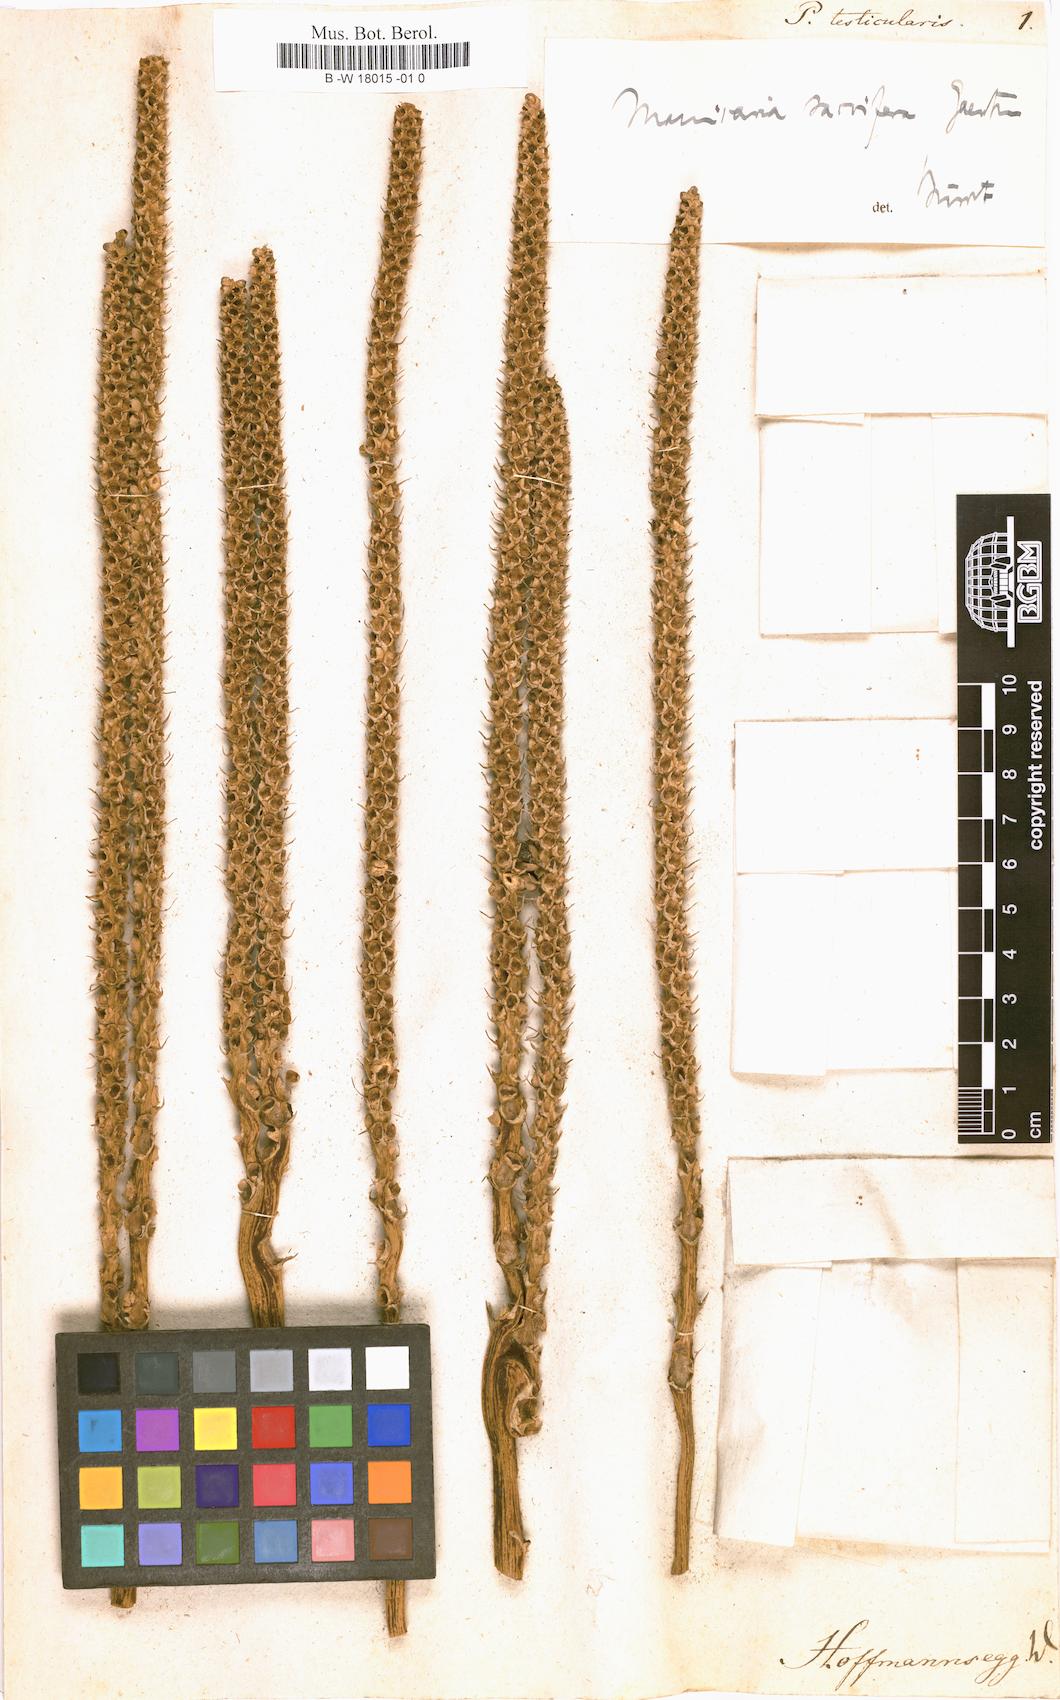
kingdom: Plantae
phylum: Tracheophyta
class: Liliopsida
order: Arecales
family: Arecaceae
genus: Manicaria
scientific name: Manicaria saccifera
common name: Sea coconut
